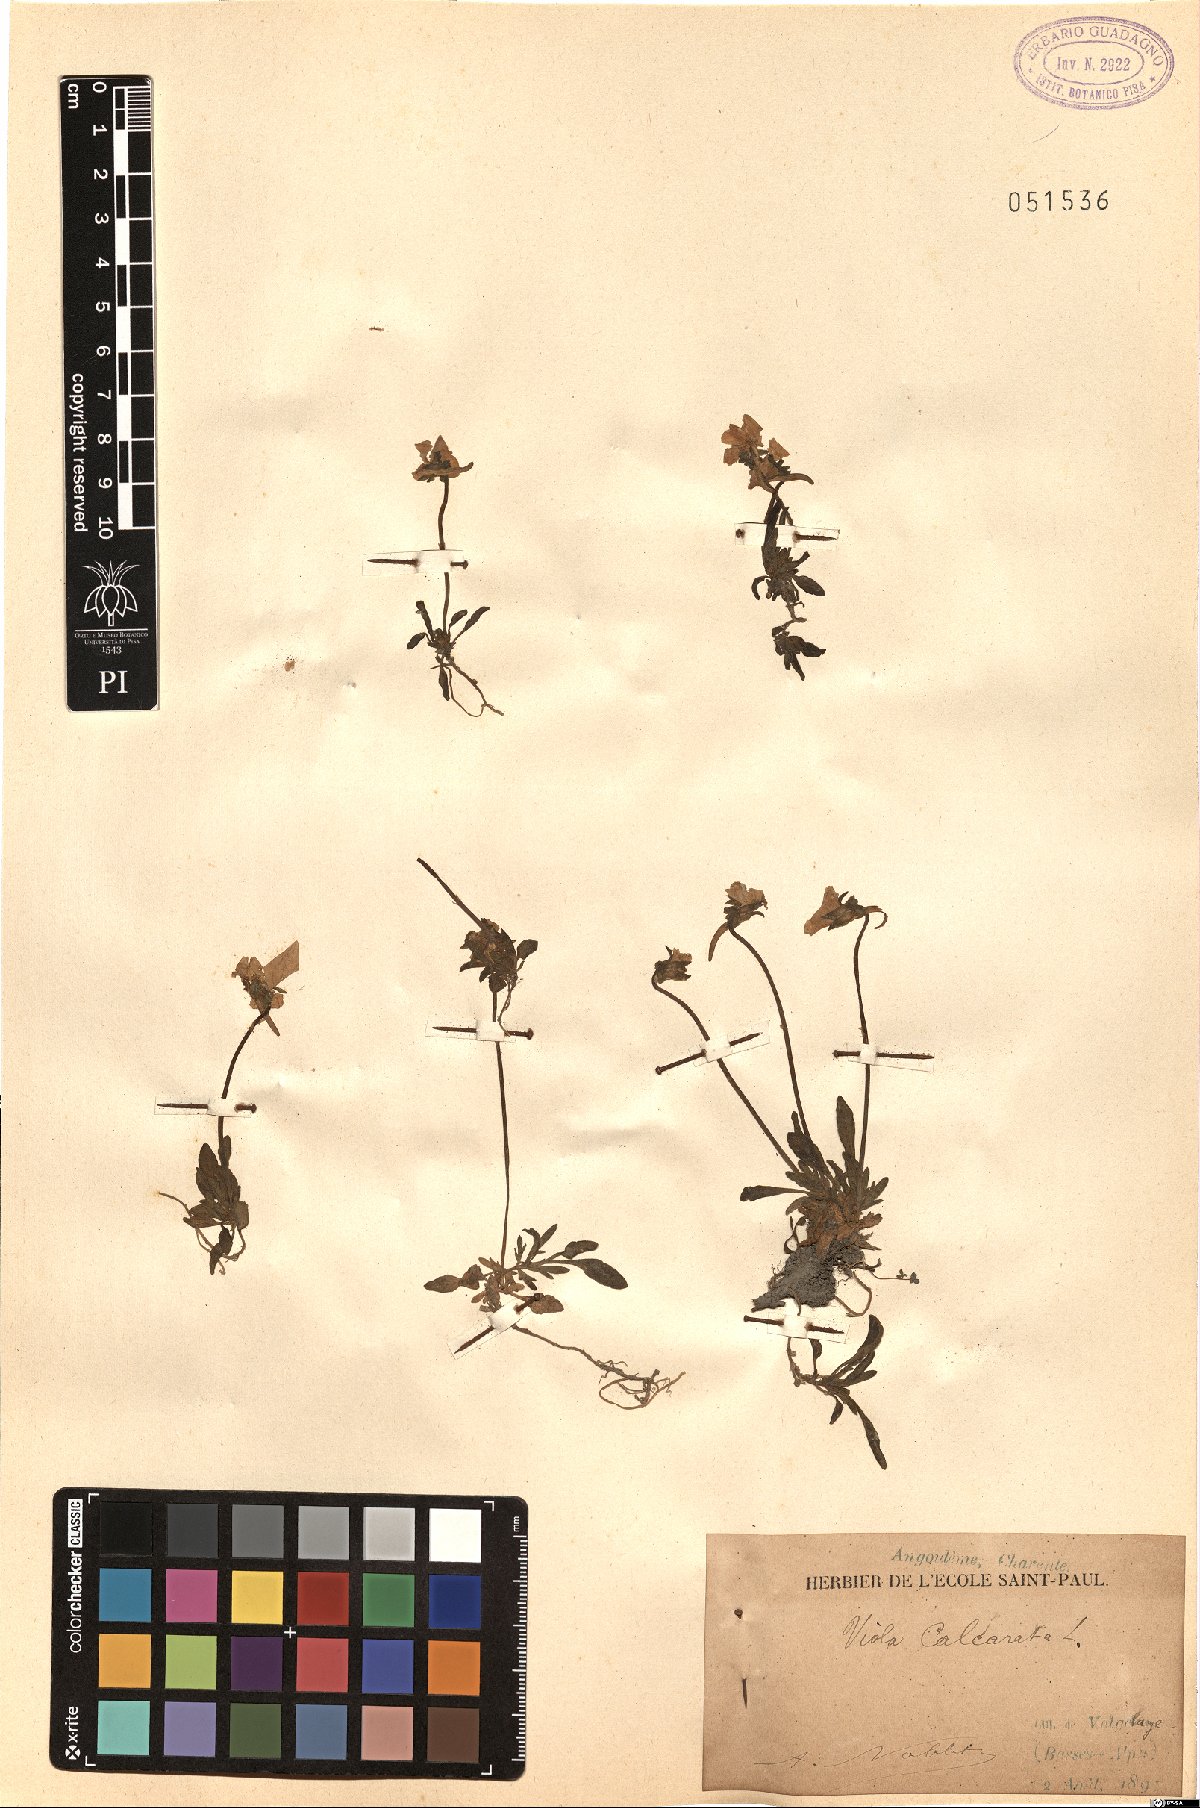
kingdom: Plantae
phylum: Tracheophyta
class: Magnoliopsida
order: Malpighiales
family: Violaceae
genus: Viola
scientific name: Viola calcarata
